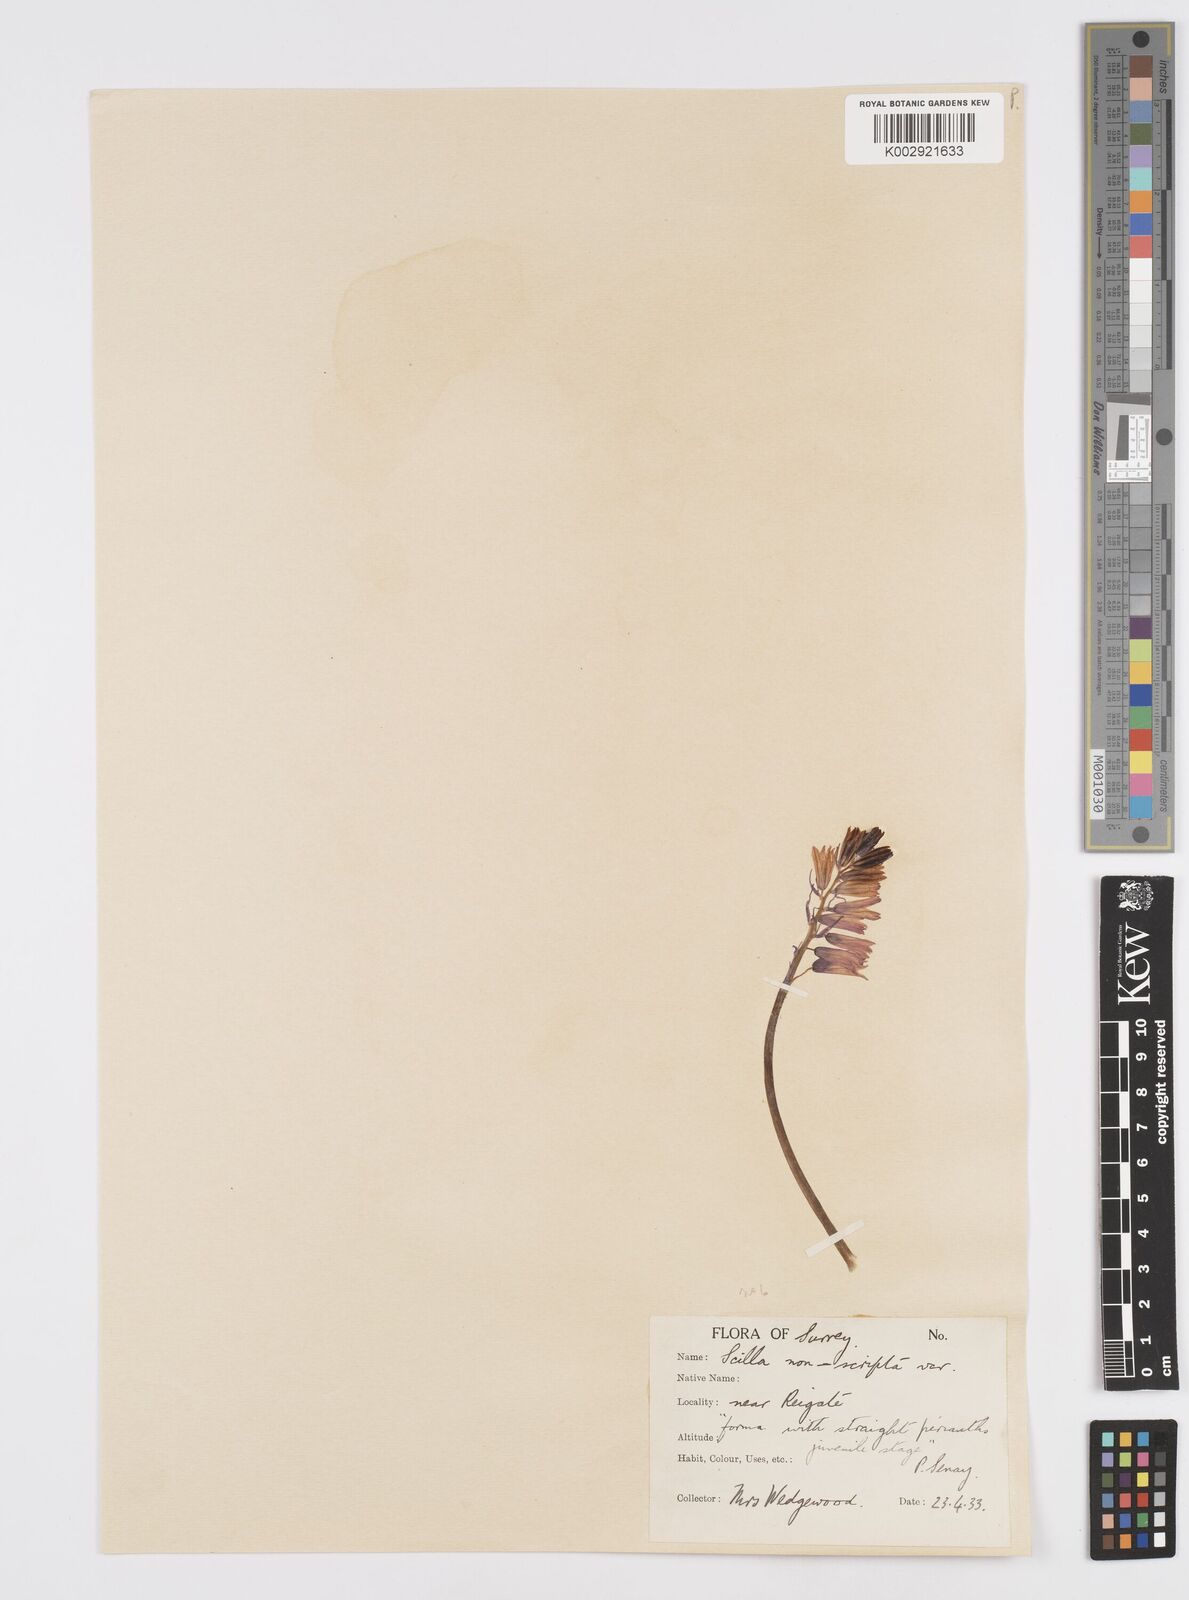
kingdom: Plantae
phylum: Tracheophyta
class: Liliopsida
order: Asparagales
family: Asparagaceae
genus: Hyacinthoides
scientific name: Hyacinthoides non-scripta
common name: Bluebell
